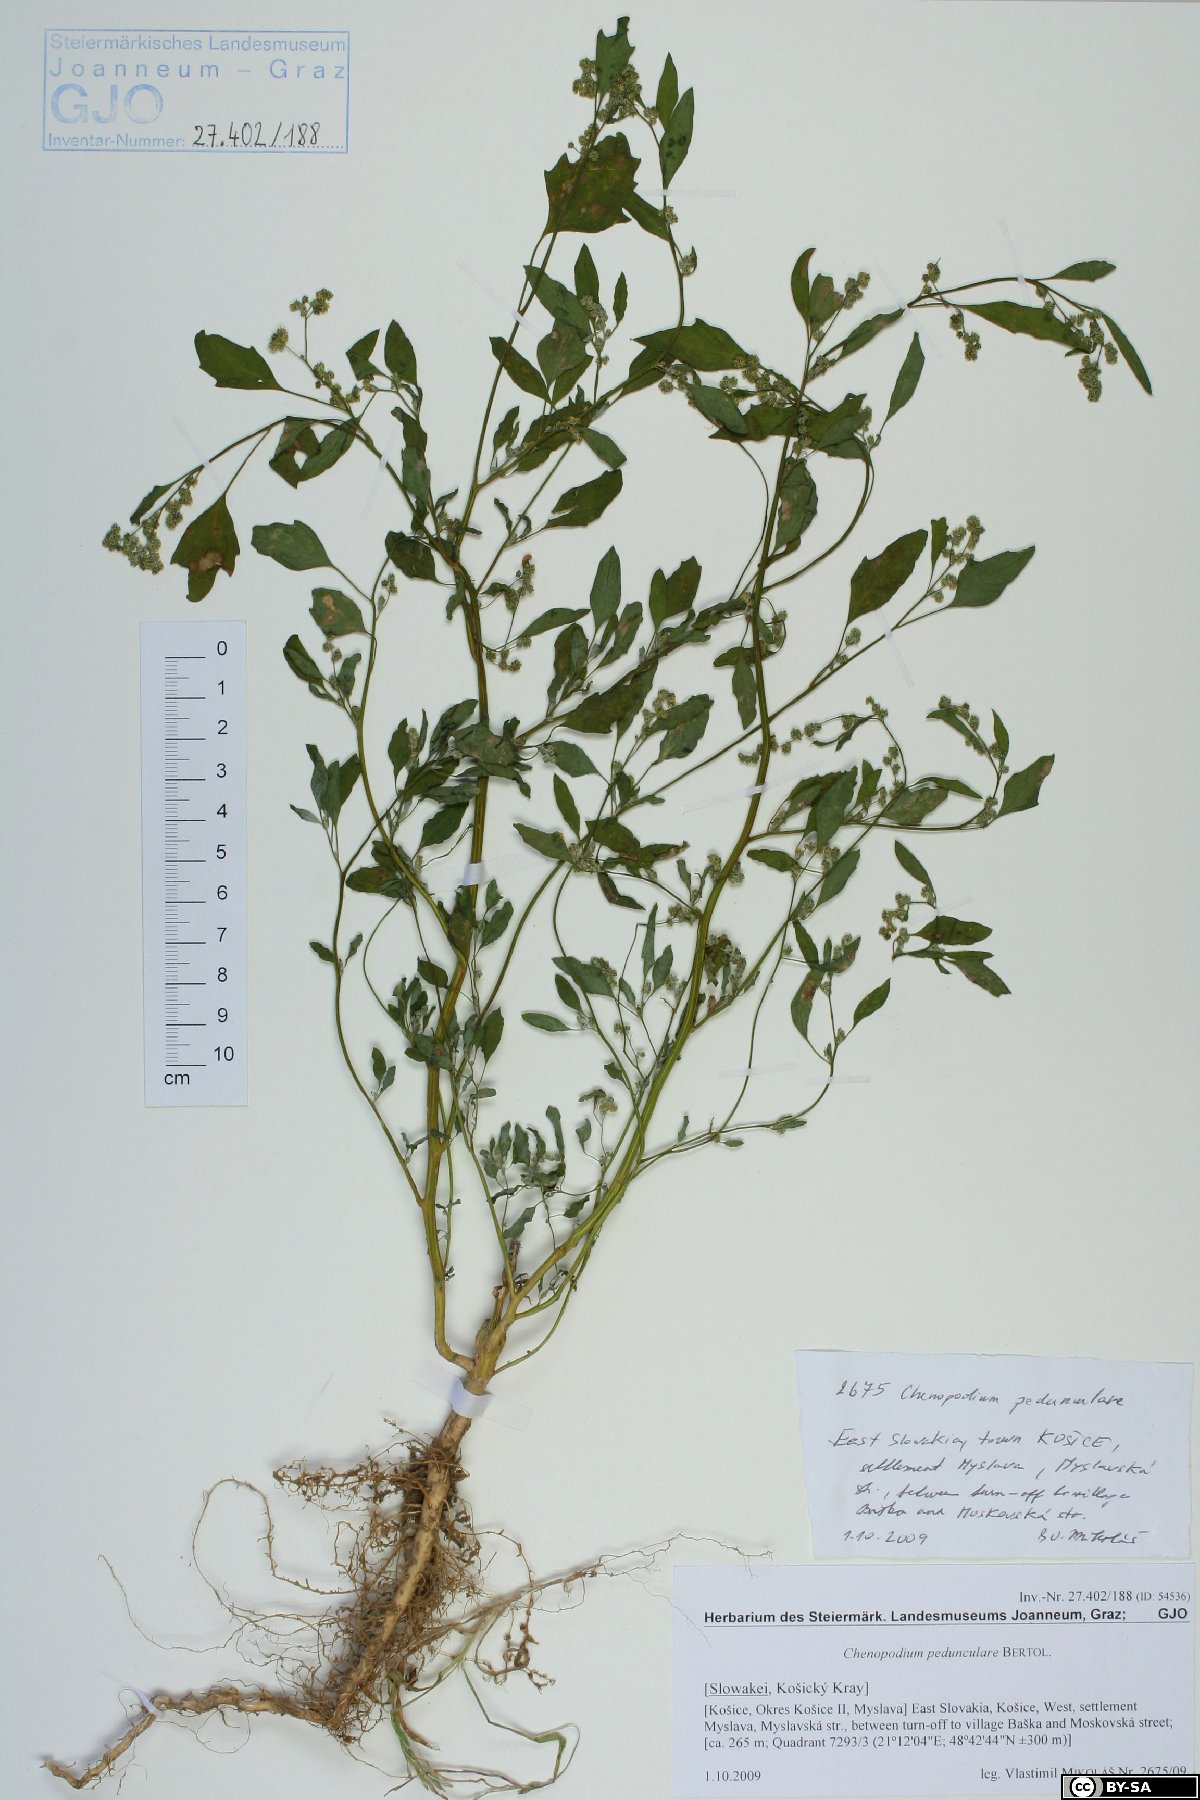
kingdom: Plantae
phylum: Tracheophyta
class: Magnoliopsida
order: Caryophyllales
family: Amaranthaceae
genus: Chenopodium
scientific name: Chenopodium album
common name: Fat-hen
